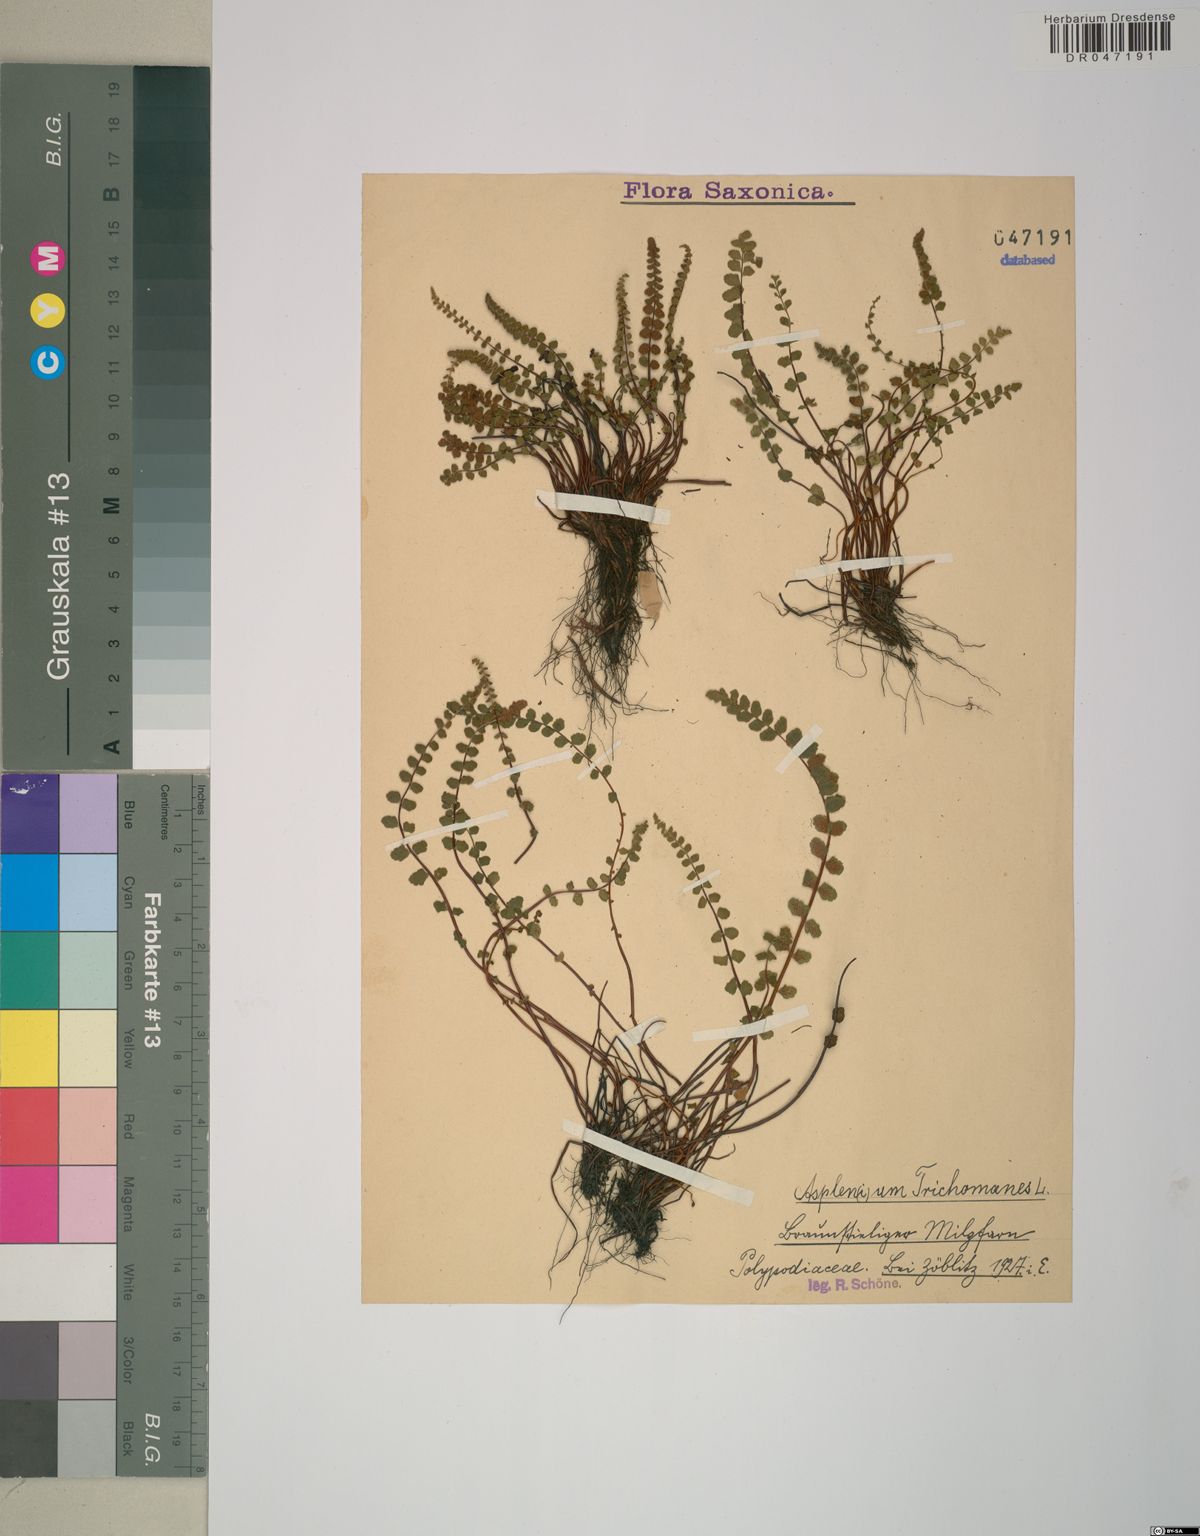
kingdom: Plantae
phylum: Tracheophyta
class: Polypodiopsida
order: Polypodiales
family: Aspleniaceae
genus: Asplenium
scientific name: Asplenium trichomanes
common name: Maidenhair spleenwort
